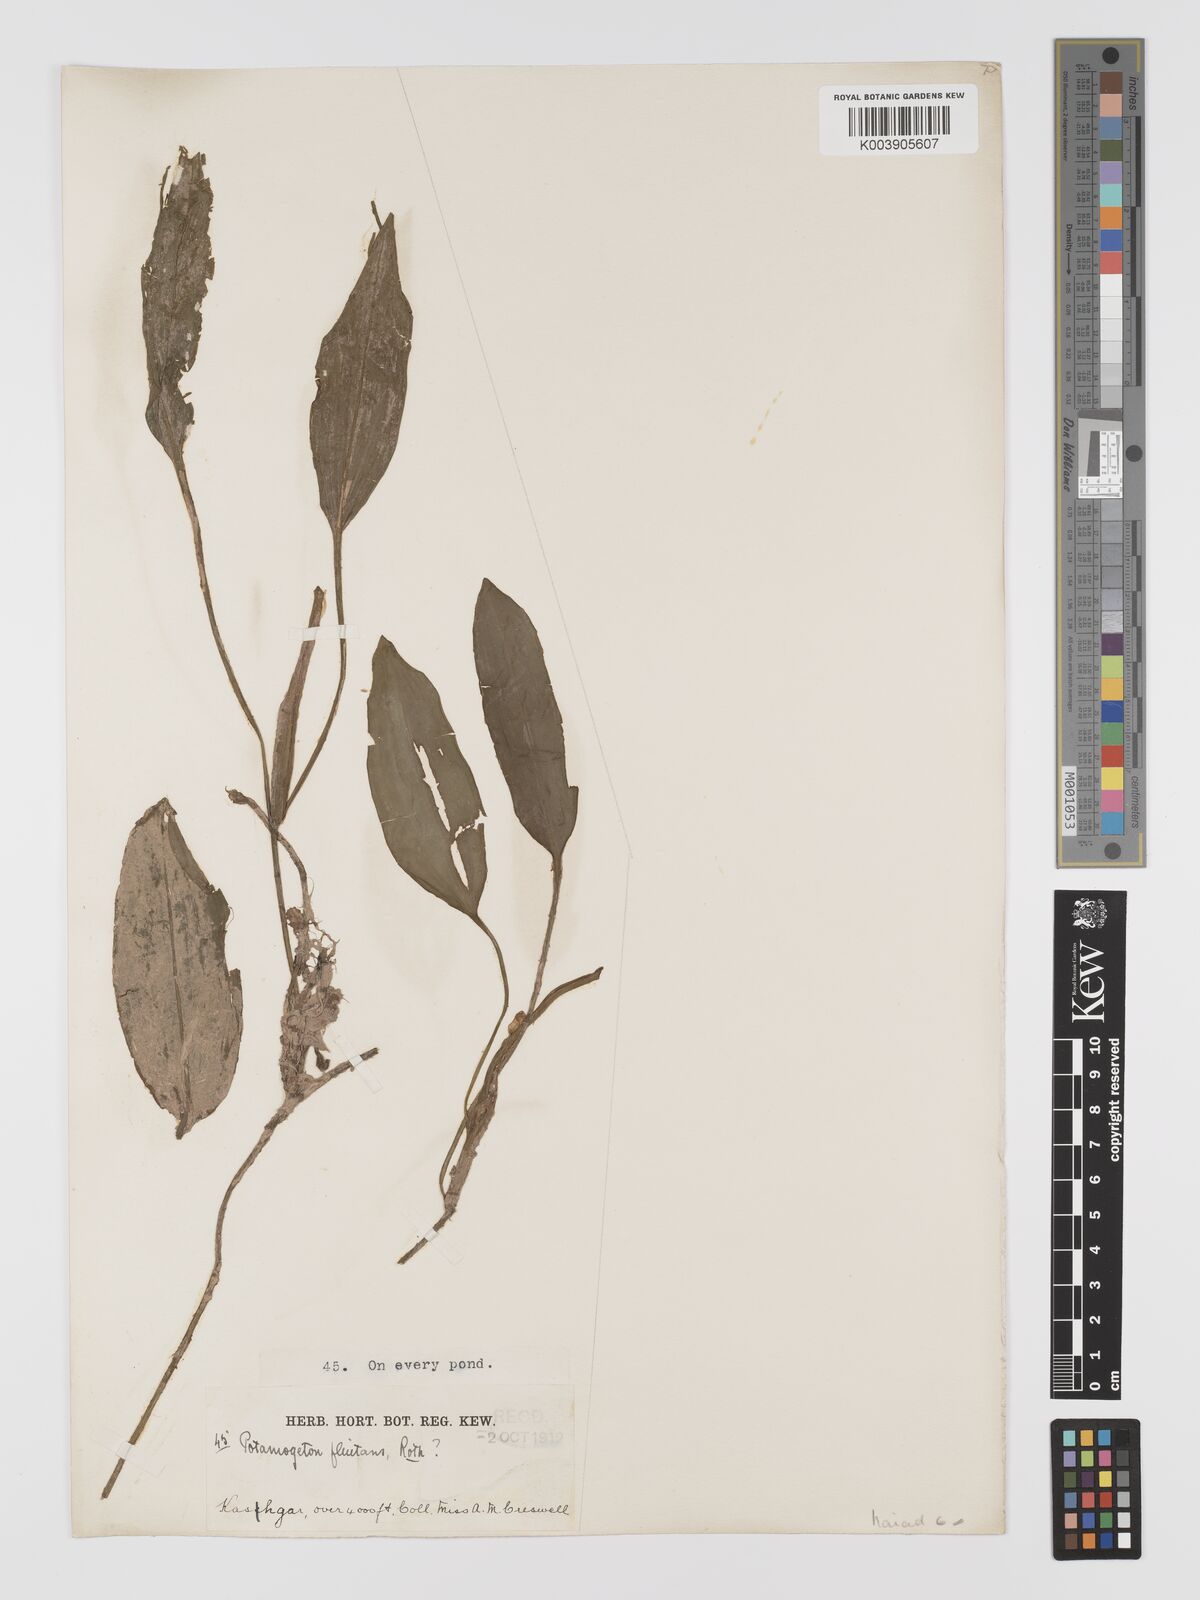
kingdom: Plantae
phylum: Tracheophyta
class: Liliopsida
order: Alismatales
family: Potamogetonaceae
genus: Potamogeton
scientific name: Potamogeton nodosus
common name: Loddon pondweed
